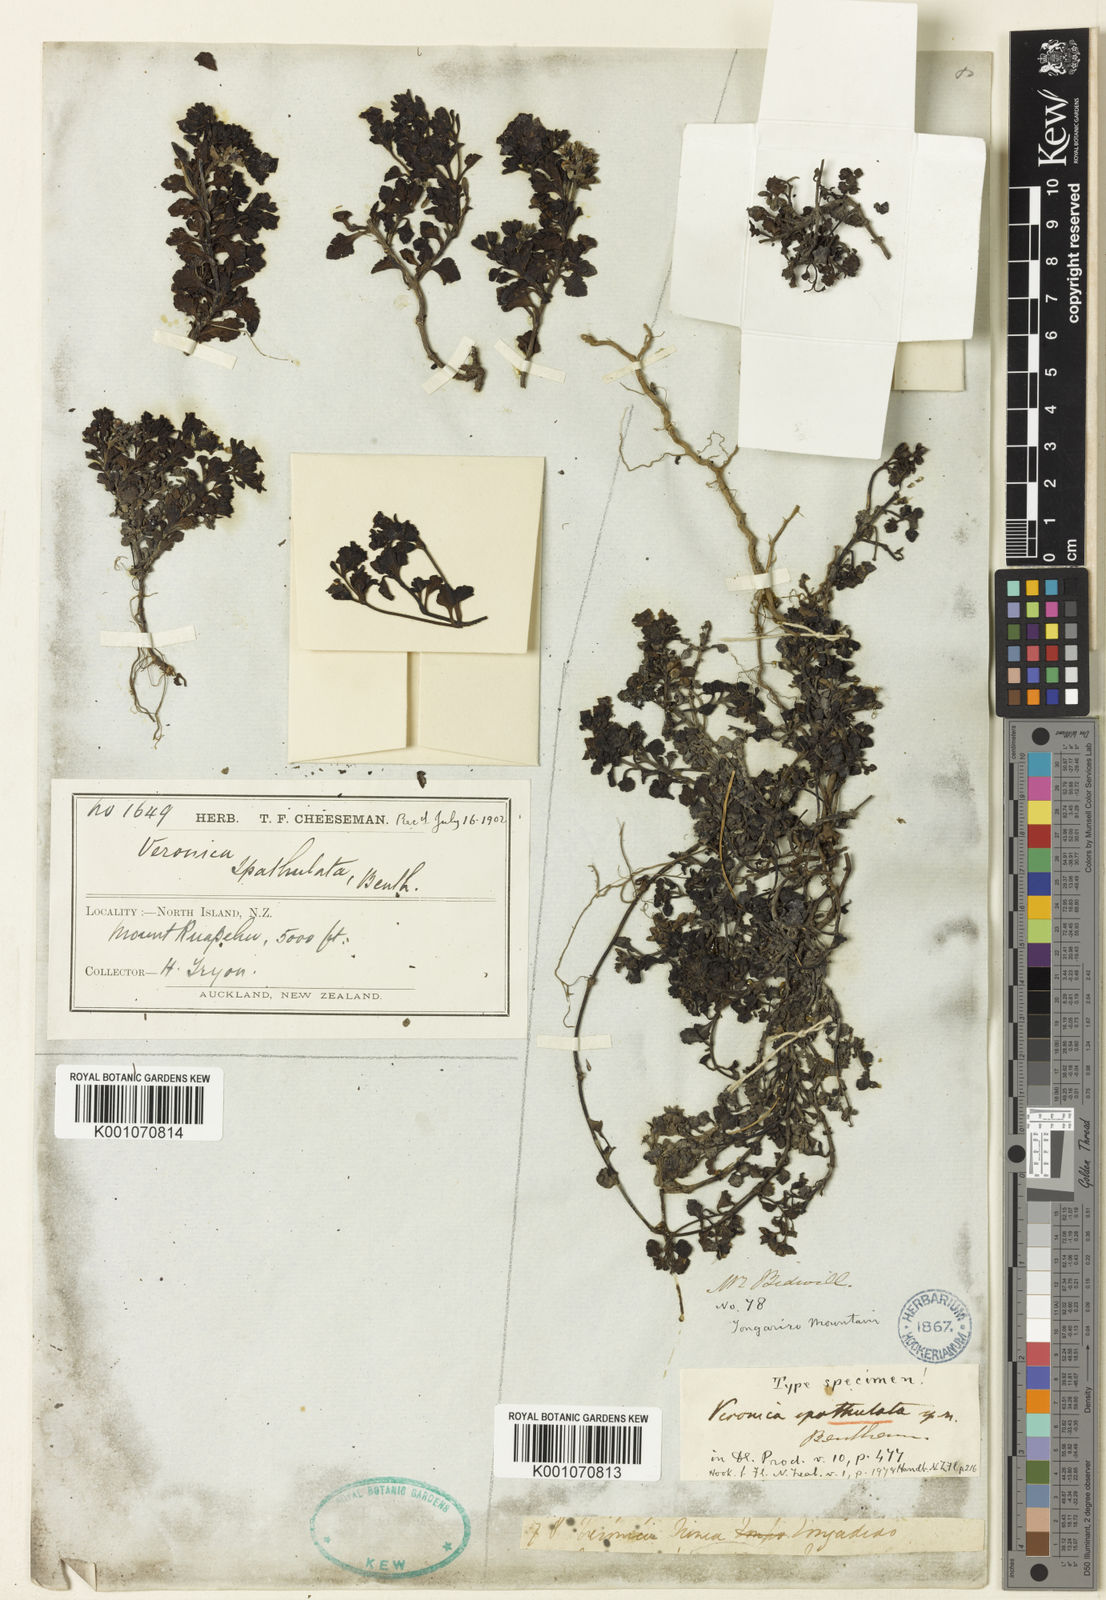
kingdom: Plantae
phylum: Tracheophyta
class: Magnoliopsida
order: Lamiales
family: Plantaginaceae
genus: Veronica
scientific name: Veronica spathulata
